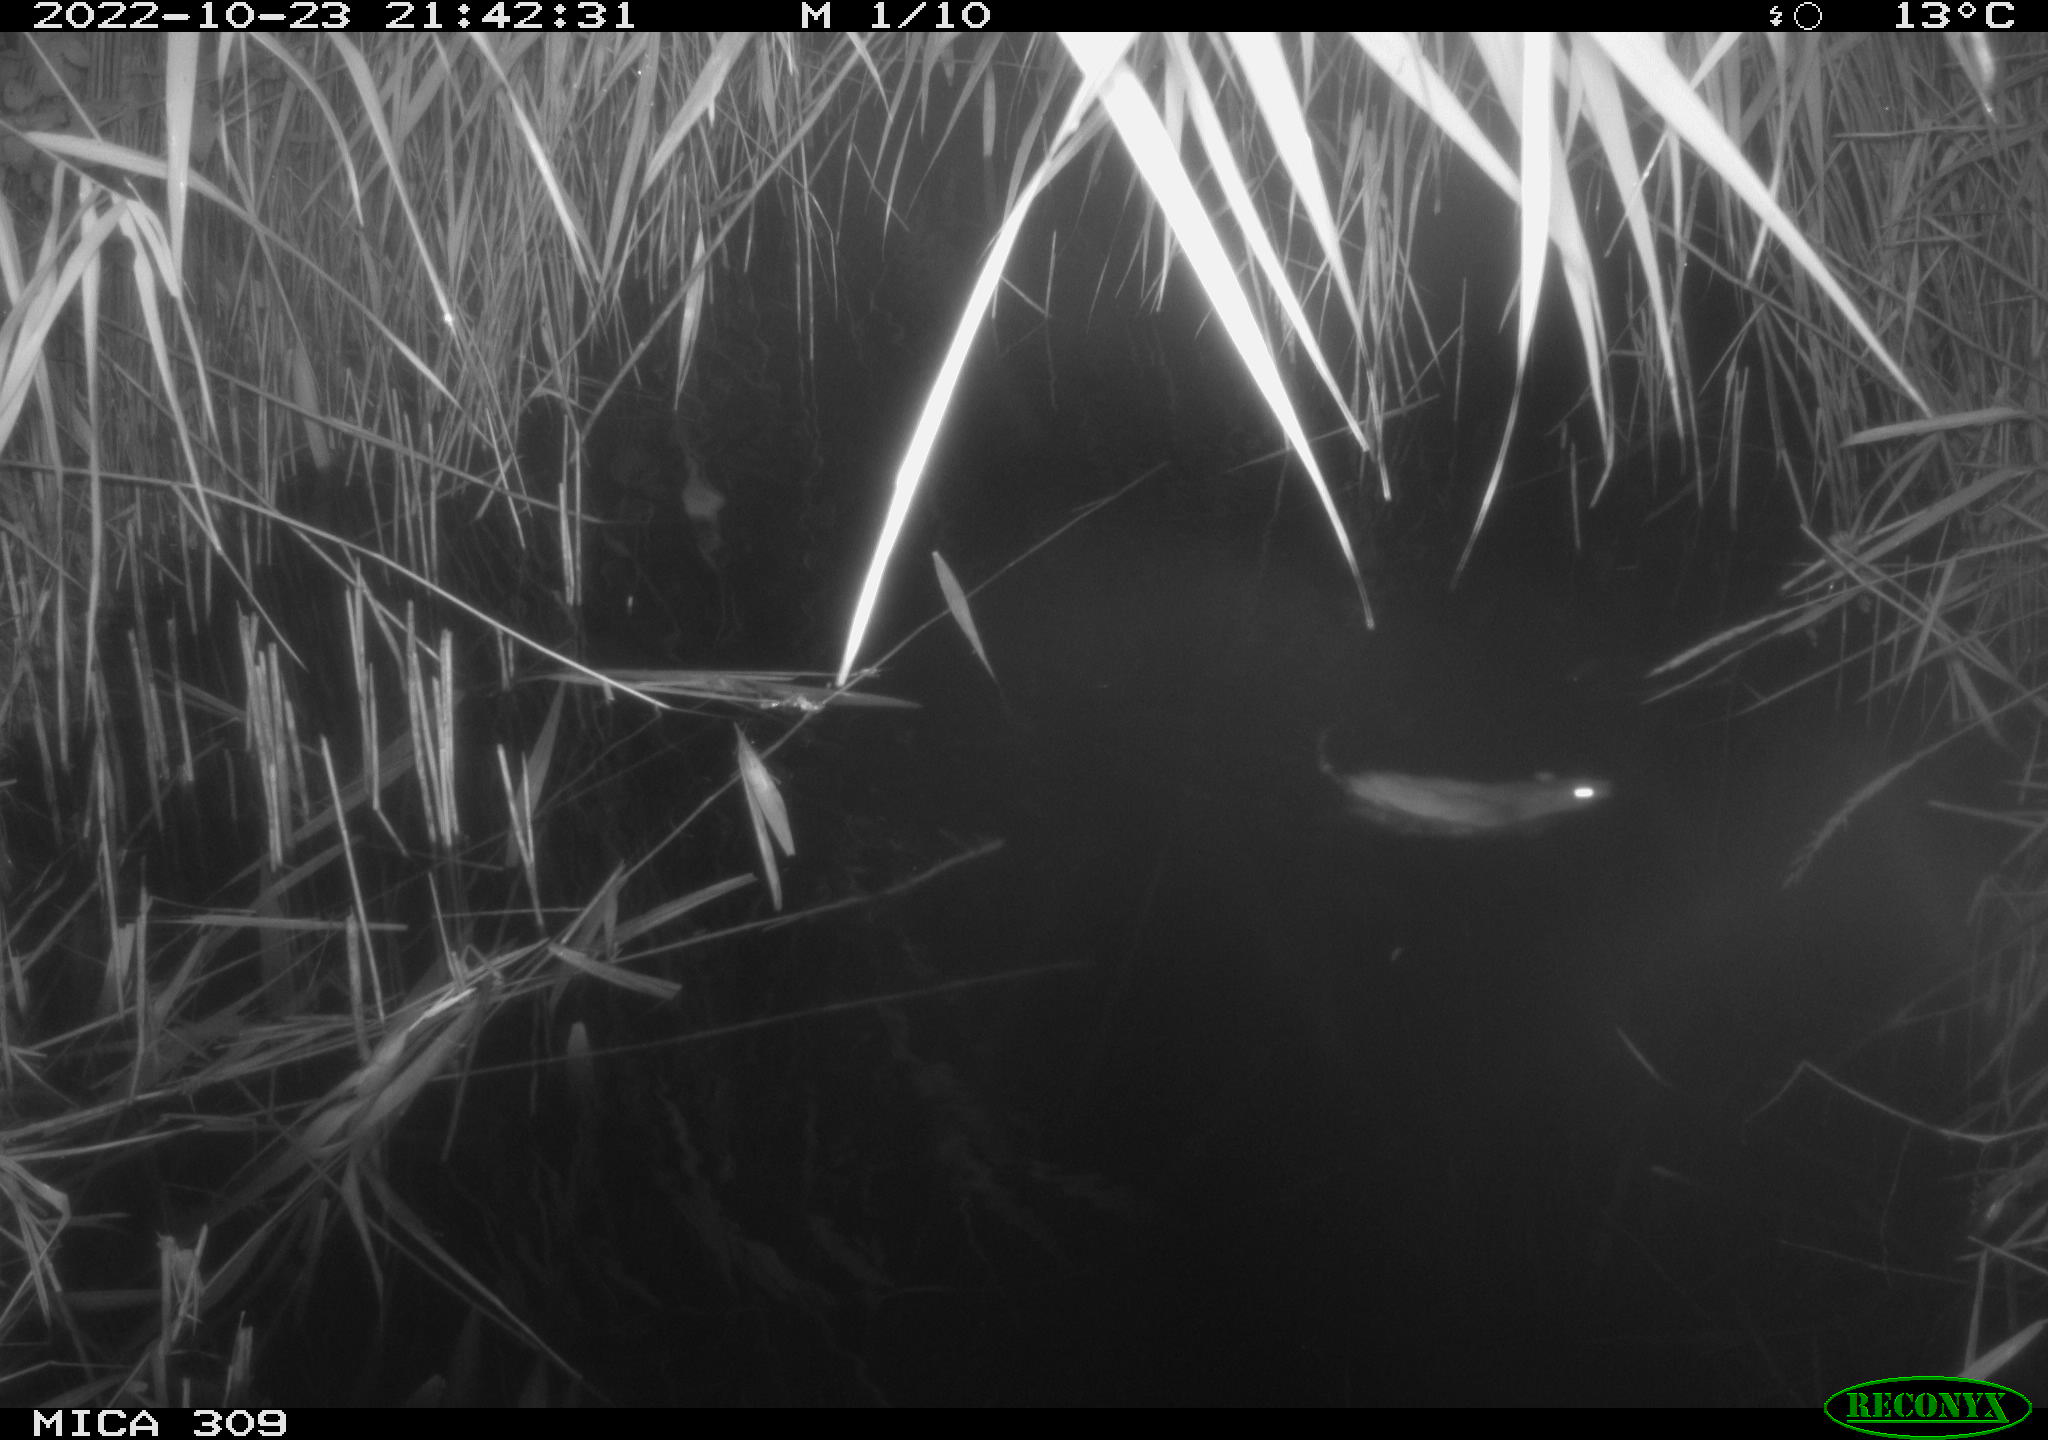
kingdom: Animalia
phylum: Chordata
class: Mammalia
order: Rodentia
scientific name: Rodentia
